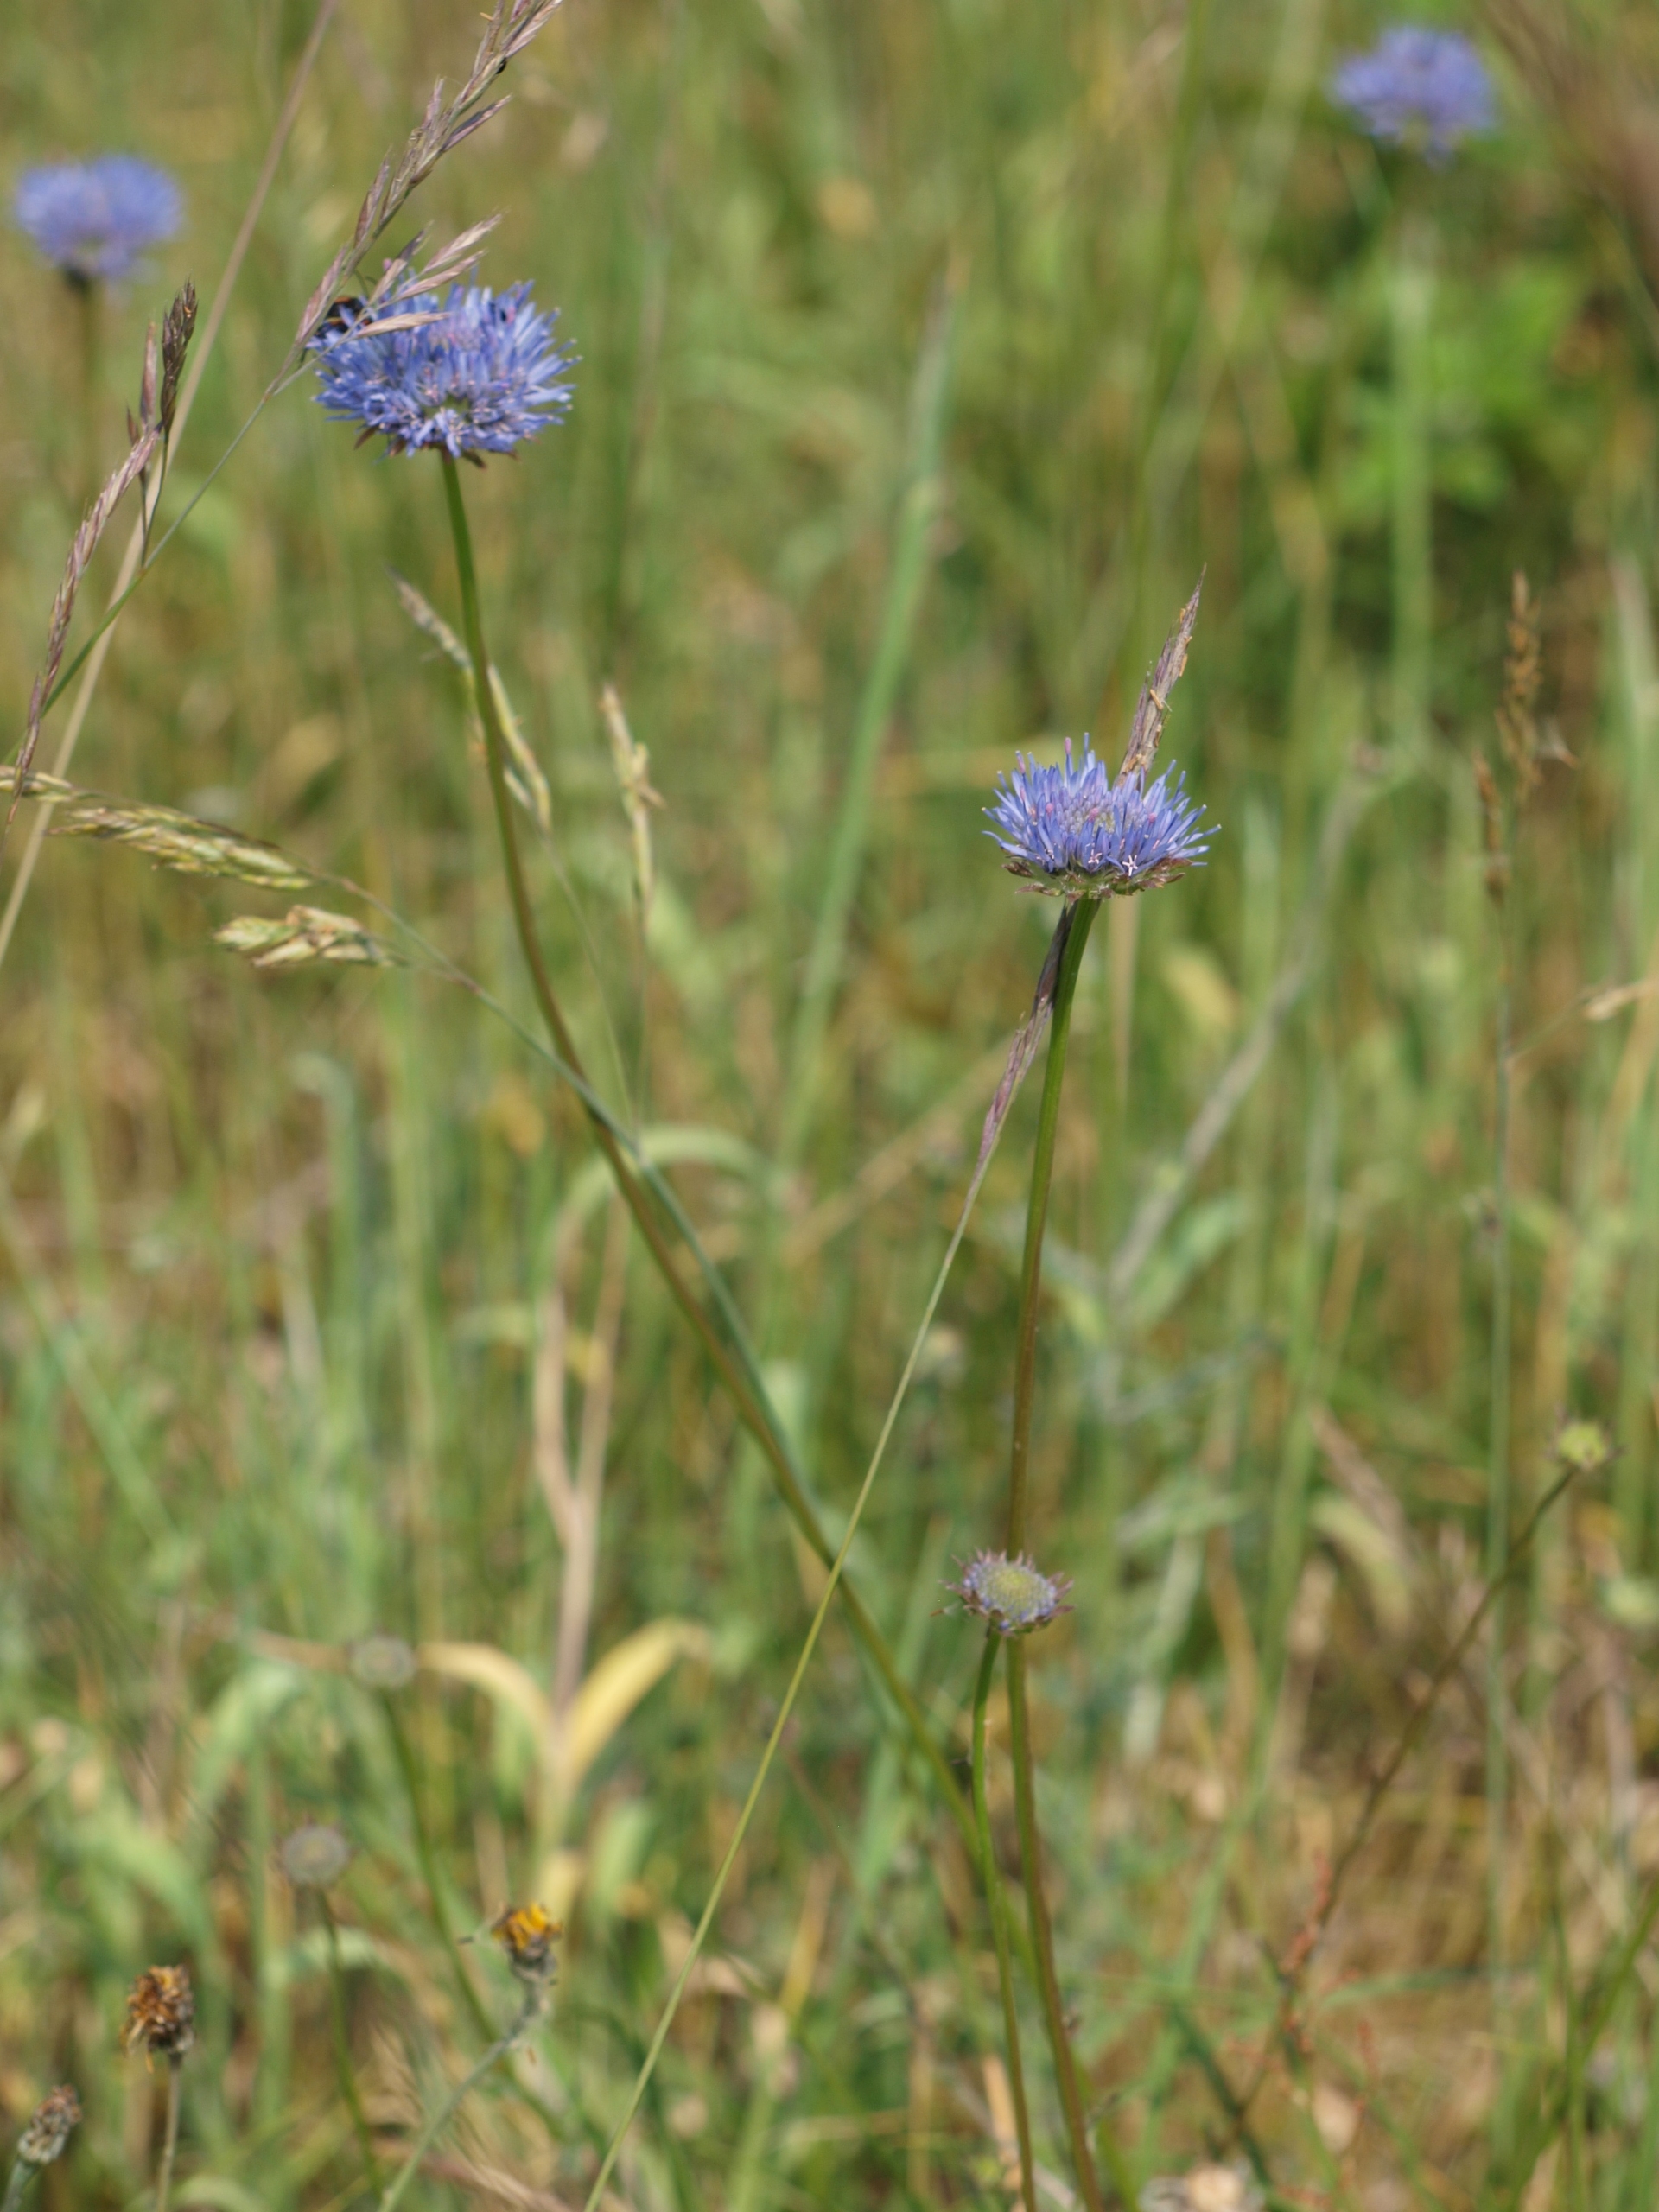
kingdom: Plantae
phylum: Tracheophyta
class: Magnoliopsida
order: Asterales
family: Campanulaceae
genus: Jasione
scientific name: Jasione montana
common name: Blåmunke
